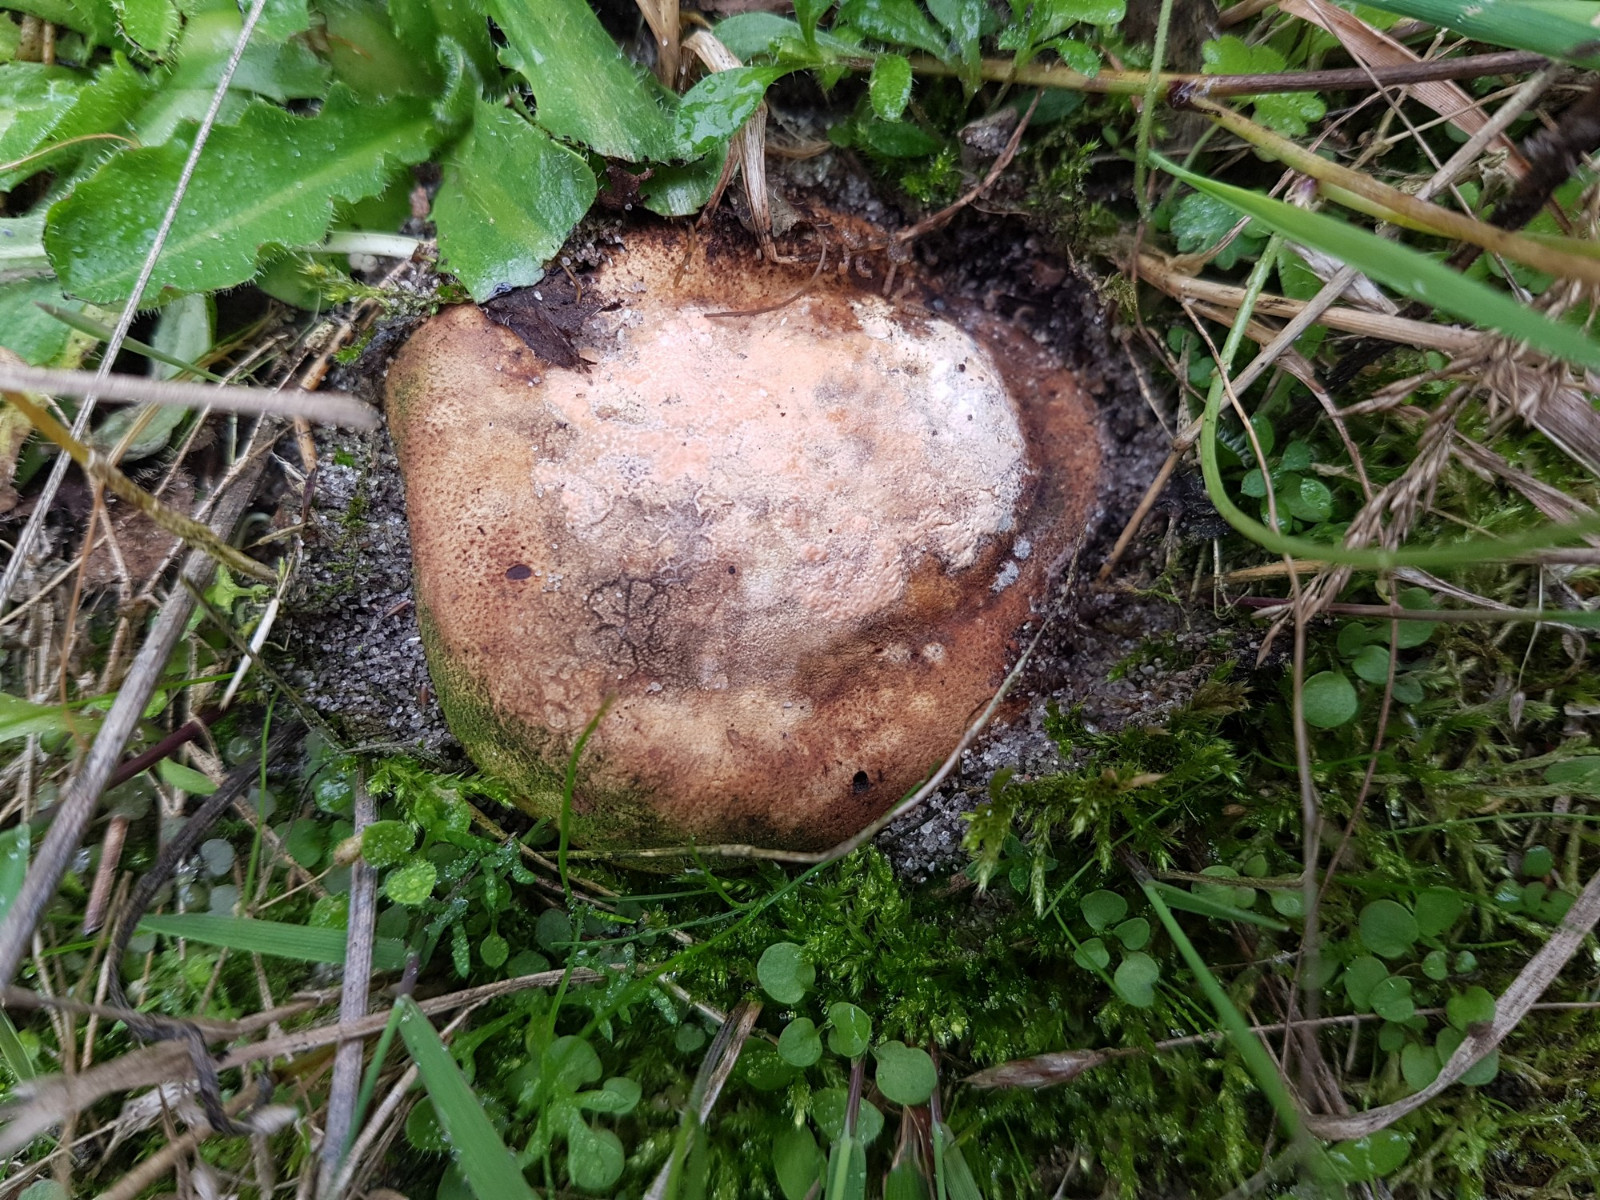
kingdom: Fungi
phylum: Basidiomycota
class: Agaricomycetes
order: Boletales
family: Sclerodermataceae
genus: Scleroderma
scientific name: Scleroderma septentrionale
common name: sand-bruskbold
